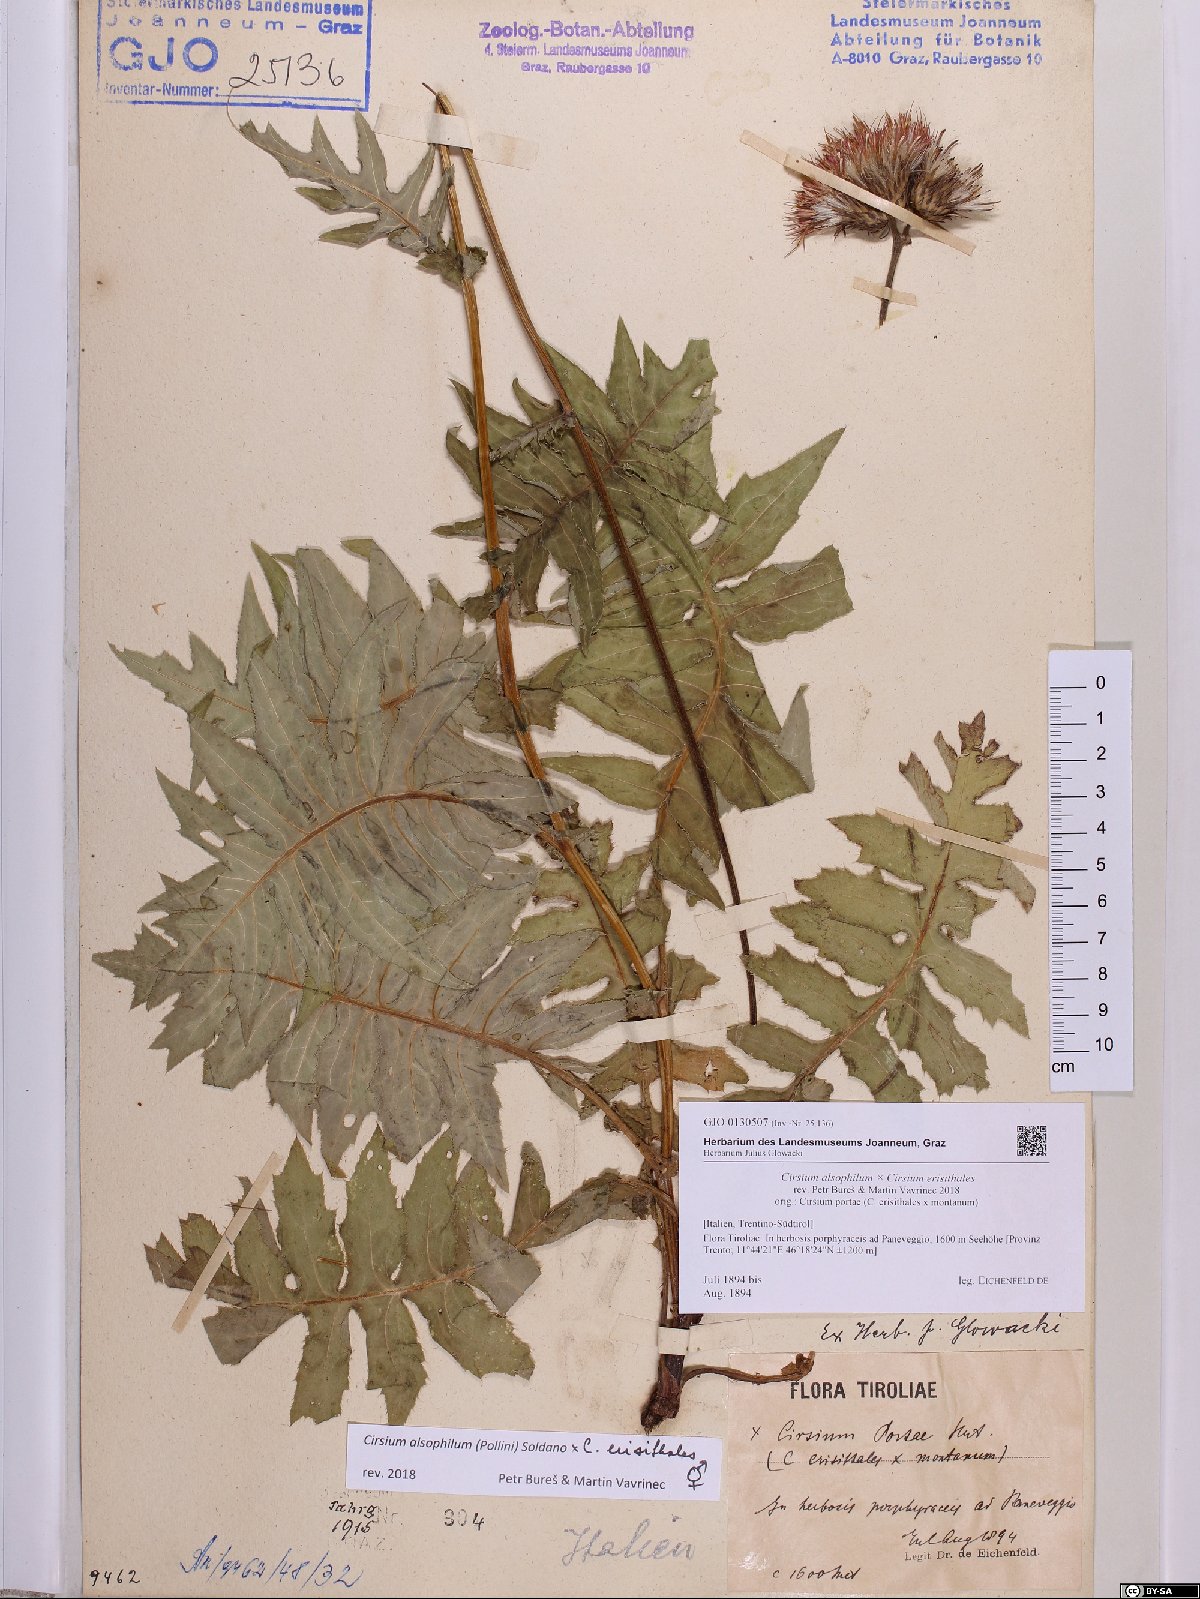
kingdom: Plantae
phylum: Tracheophyta
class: Magnoliopsida
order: Asterales
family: Asteraceae
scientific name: Asteraceae
